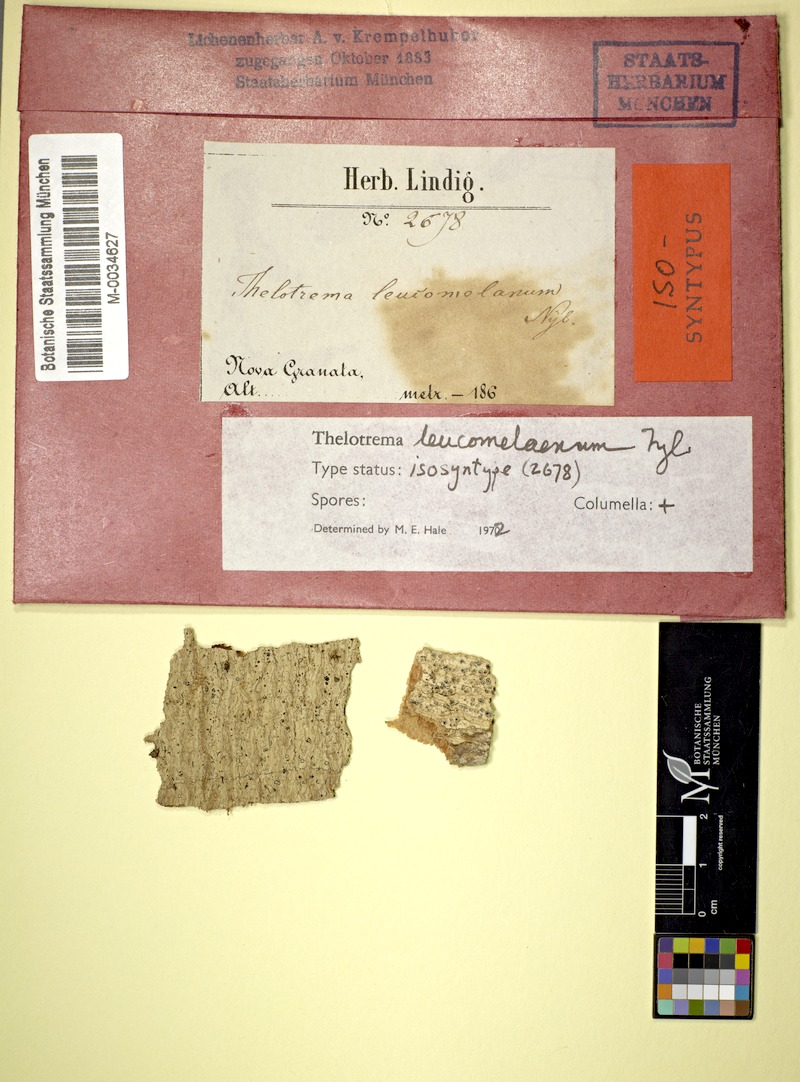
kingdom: Fungi
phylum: Ascomycota
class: Lecanoromycetes
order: Ostropales
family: Graphidaceae
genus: Thelotrema
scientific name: Thelotrema leucomelaenum
